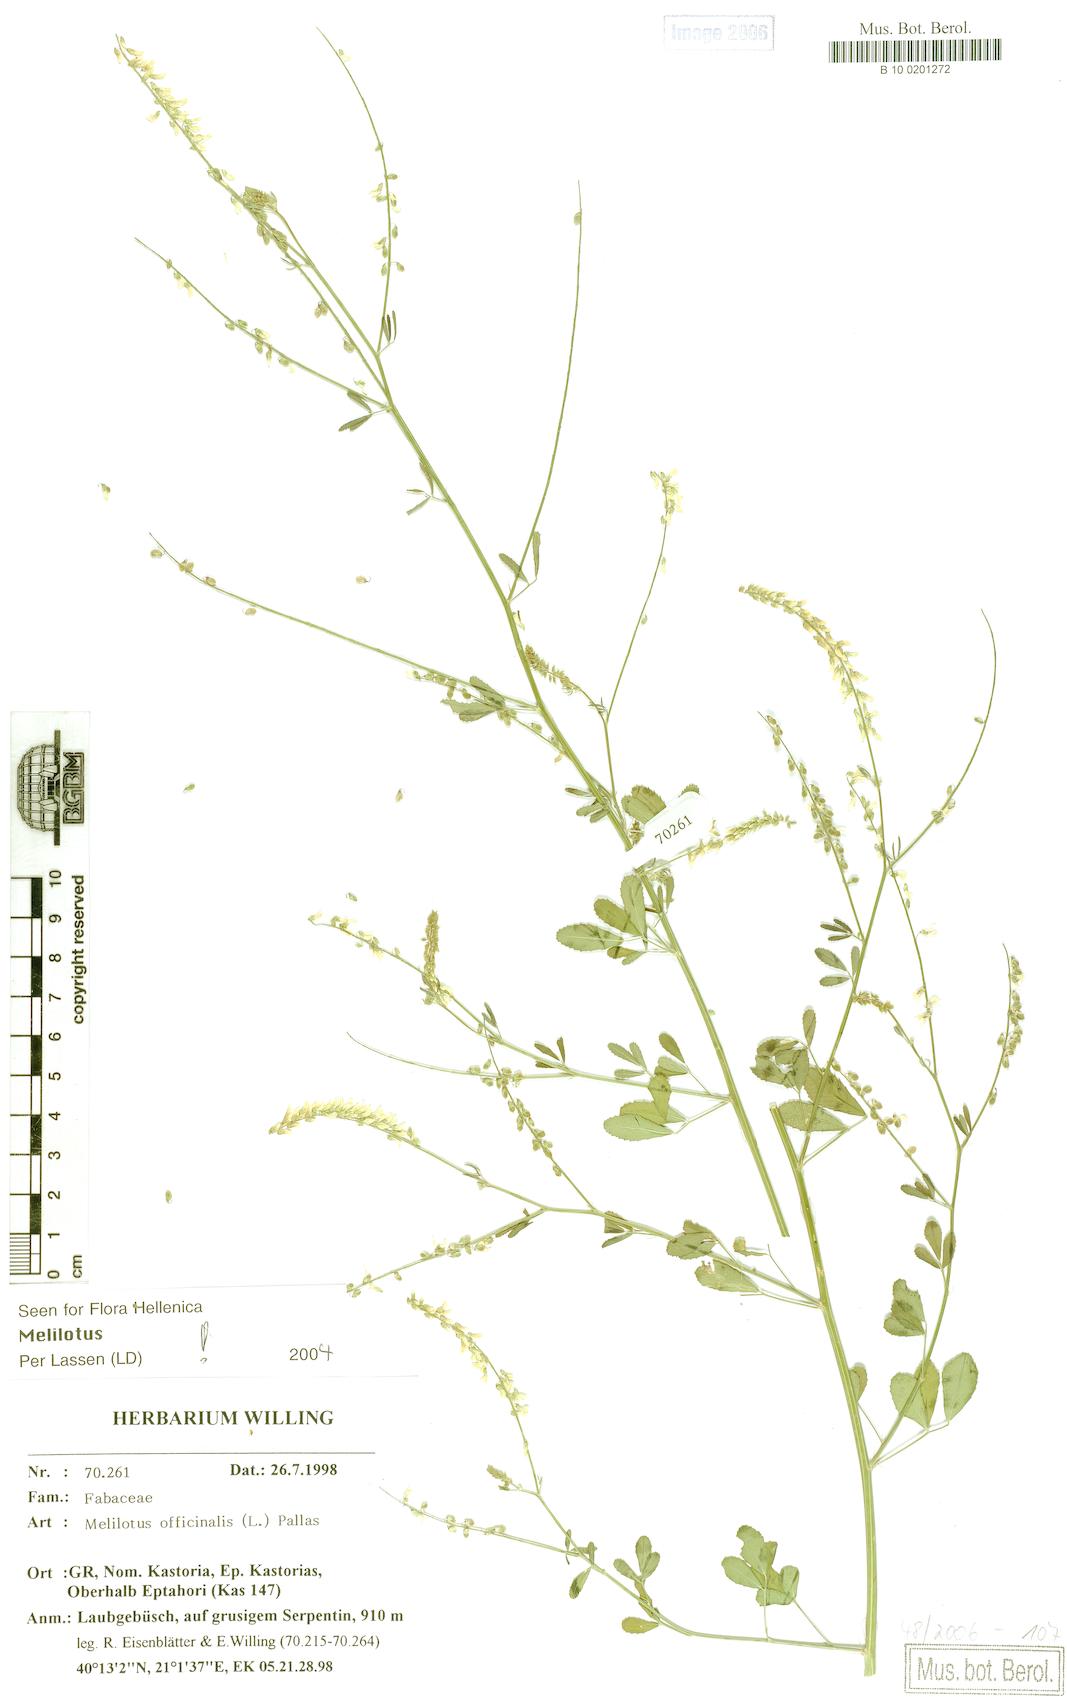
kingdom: Plantae
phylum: Tracheophyta
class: Magnoliopsida
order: Fabales
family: Fabaceae
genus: Melilotus
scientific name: Melilotus officinalis
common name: Sweetclover
